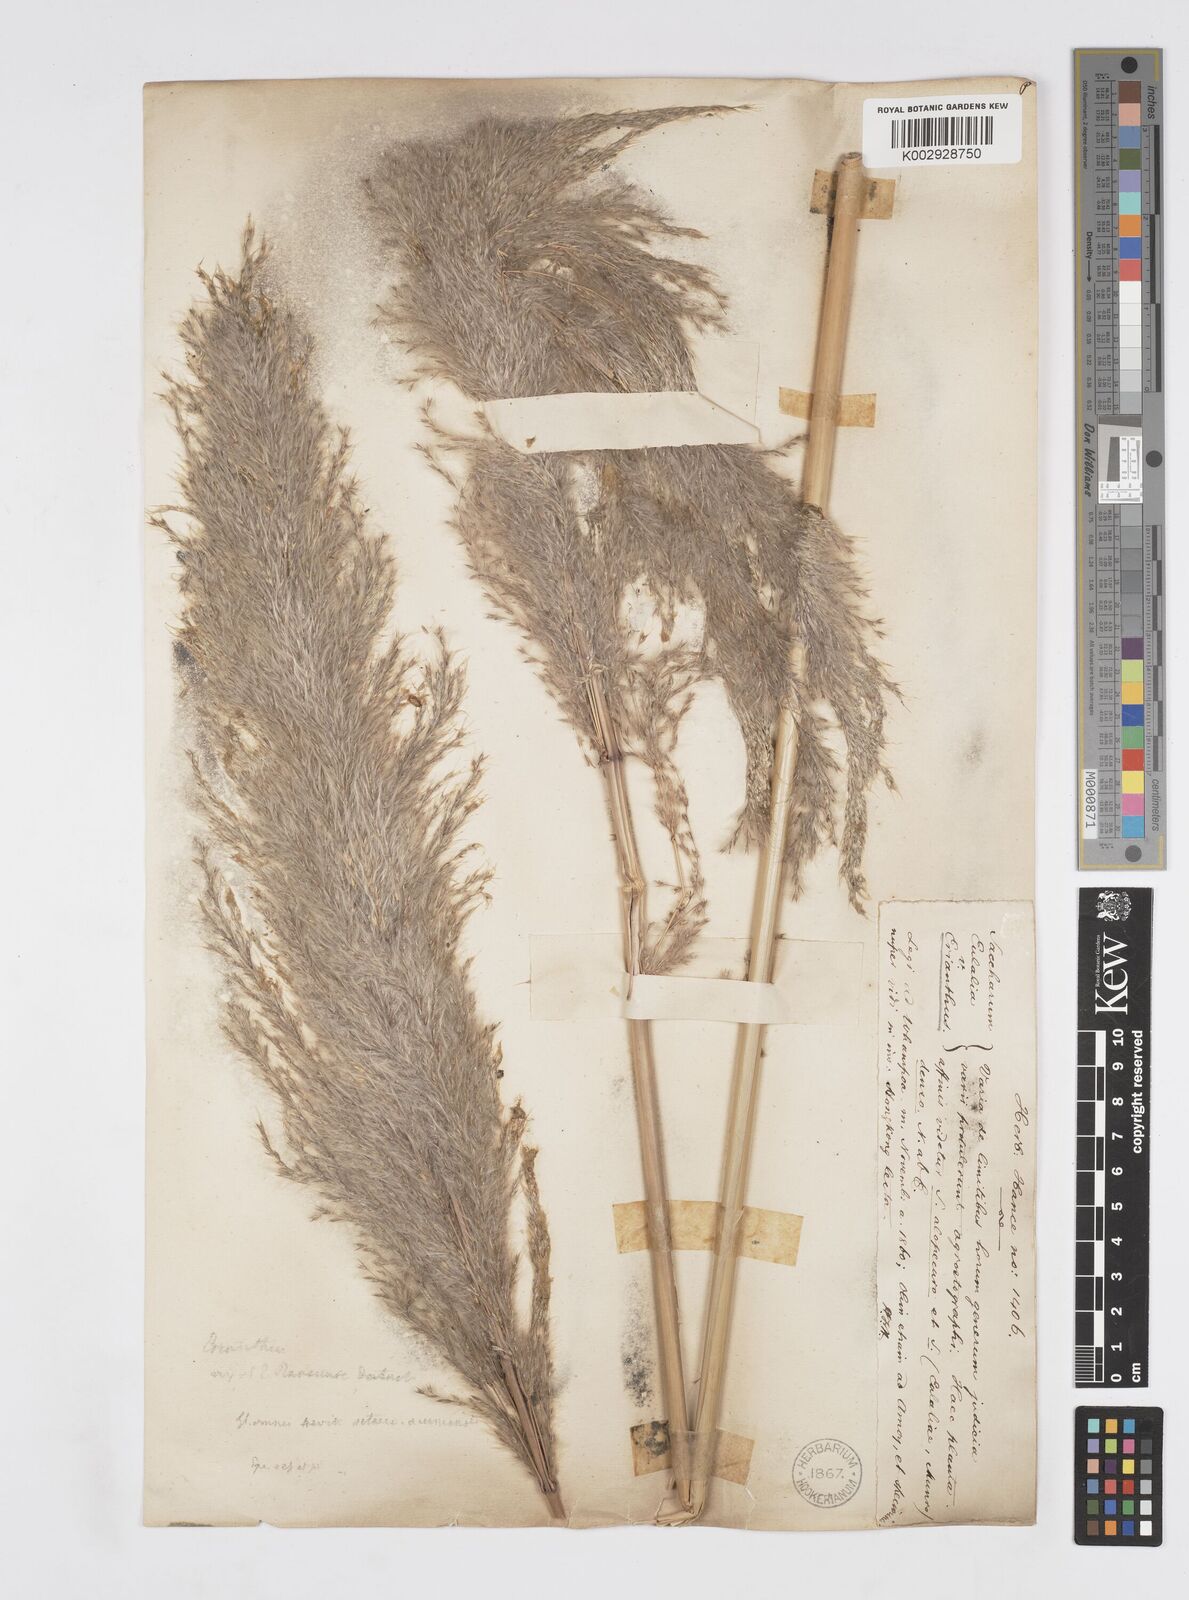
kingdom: Plantae
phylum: Tracheophyta
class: Liliopsida
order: Poales
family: Poaceae
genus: Tripidium
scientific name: Tripidium arundinaceum
